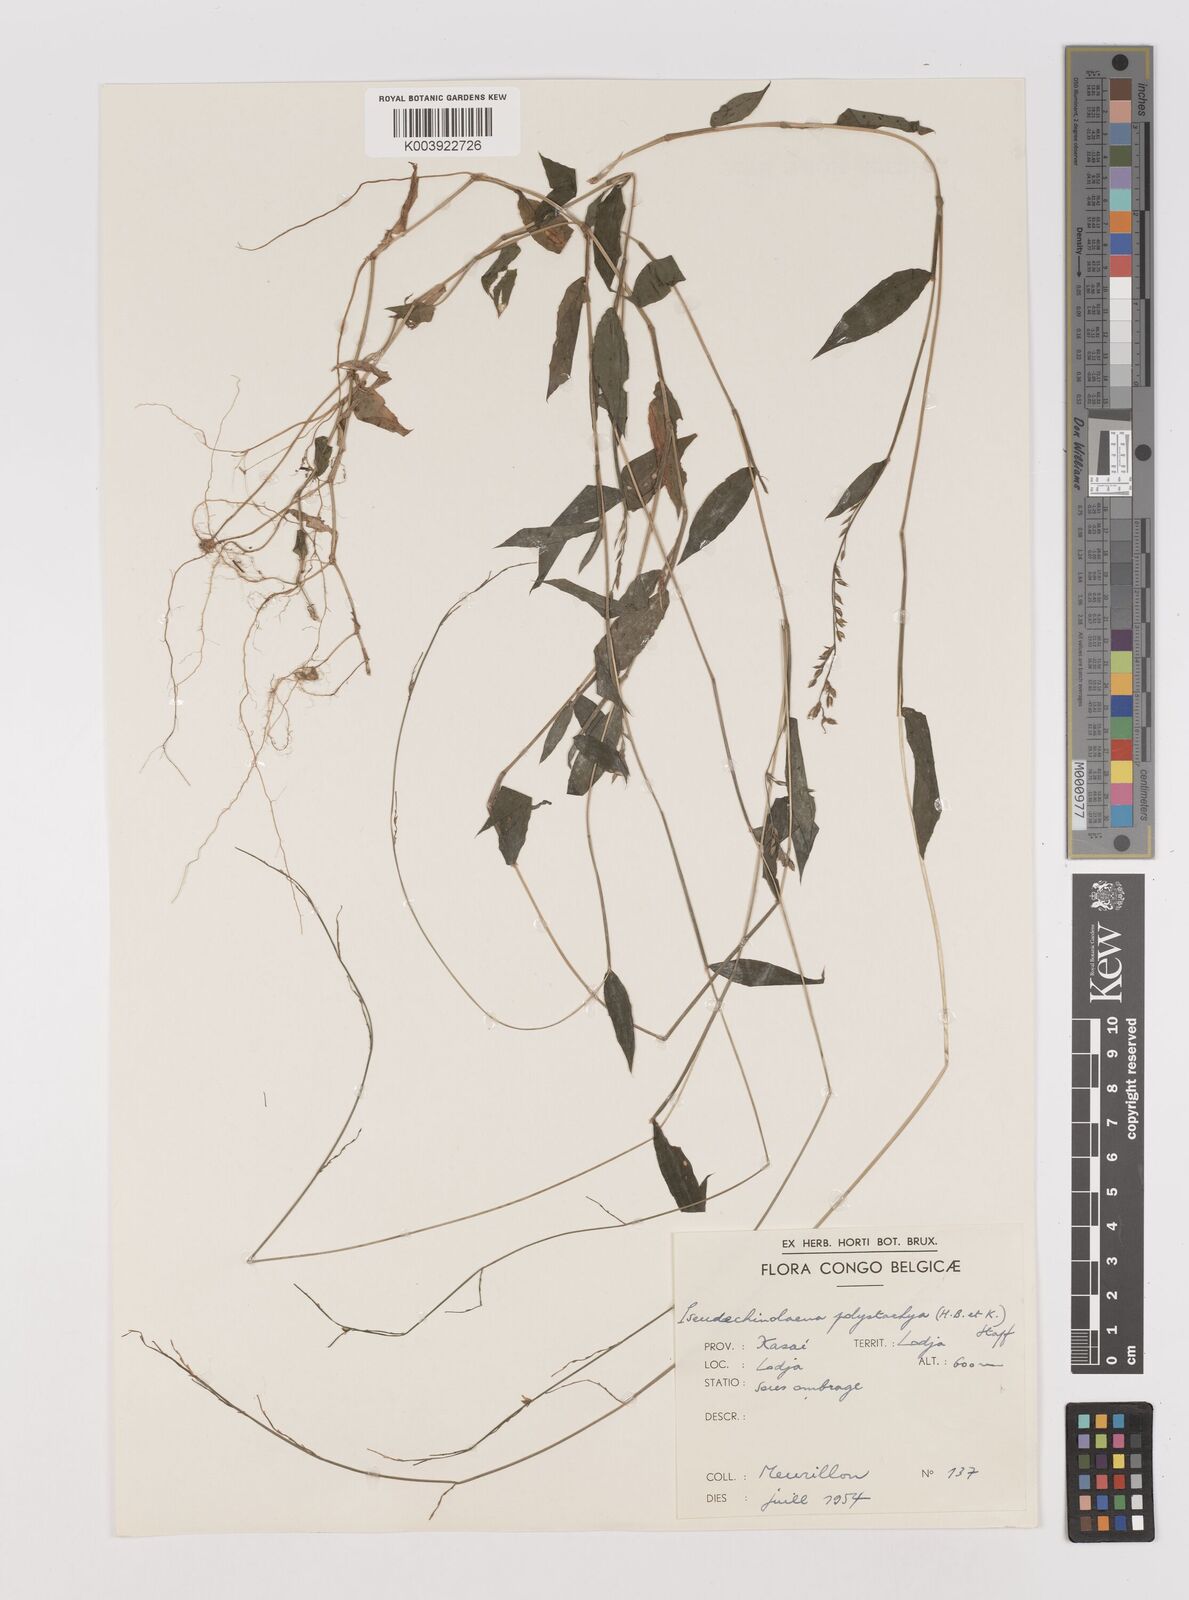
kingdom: Plantae
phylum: Tracheophyta
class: Liliopsida
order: Poales
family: Poaceae
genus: Pseudechinolaena
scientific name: Pseudechinolaena polystachya
